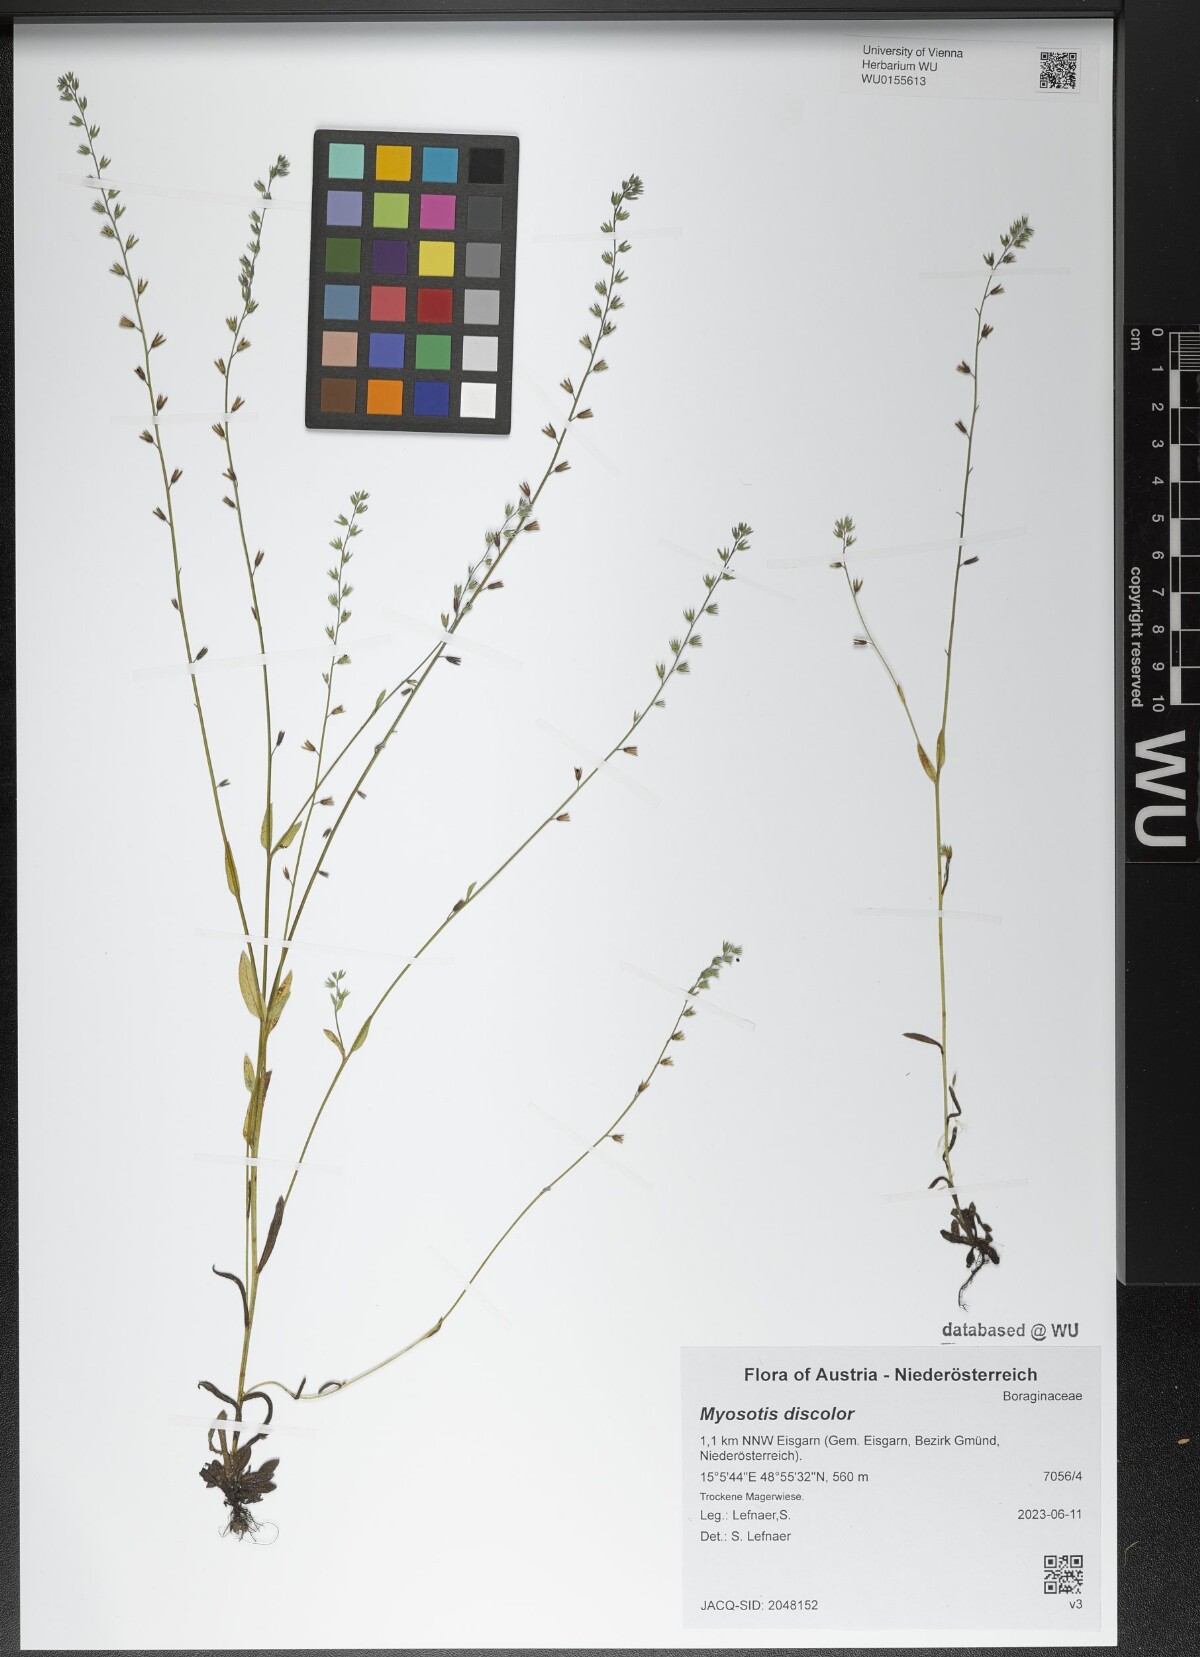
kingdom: Plantae
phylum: Tracheophyta
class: Magnoliopsida
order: Boraginales
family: Boraginaceae
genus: Myosotis
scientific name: Myosotis discolor
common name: Changing forget-me-not
